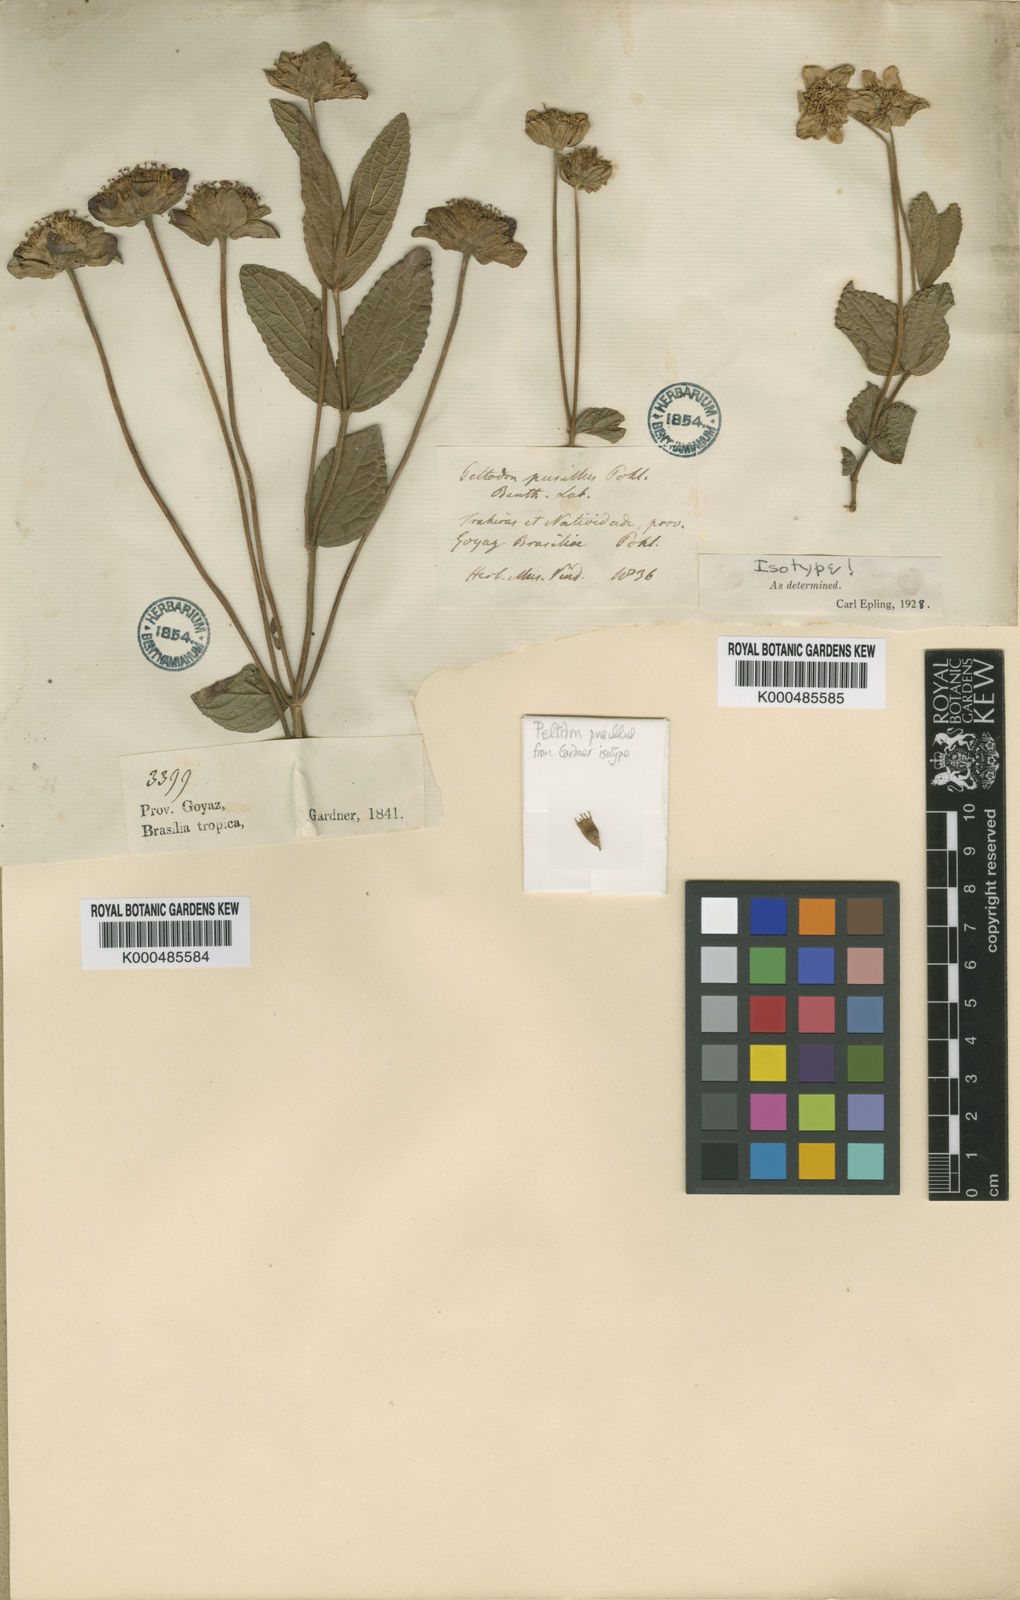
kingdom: Plantae
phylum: Tracheophyta
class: Magnoliopsida
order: Lamiales
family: Lamiaceae
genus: Hyptis
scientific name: Hyptis pusilla
